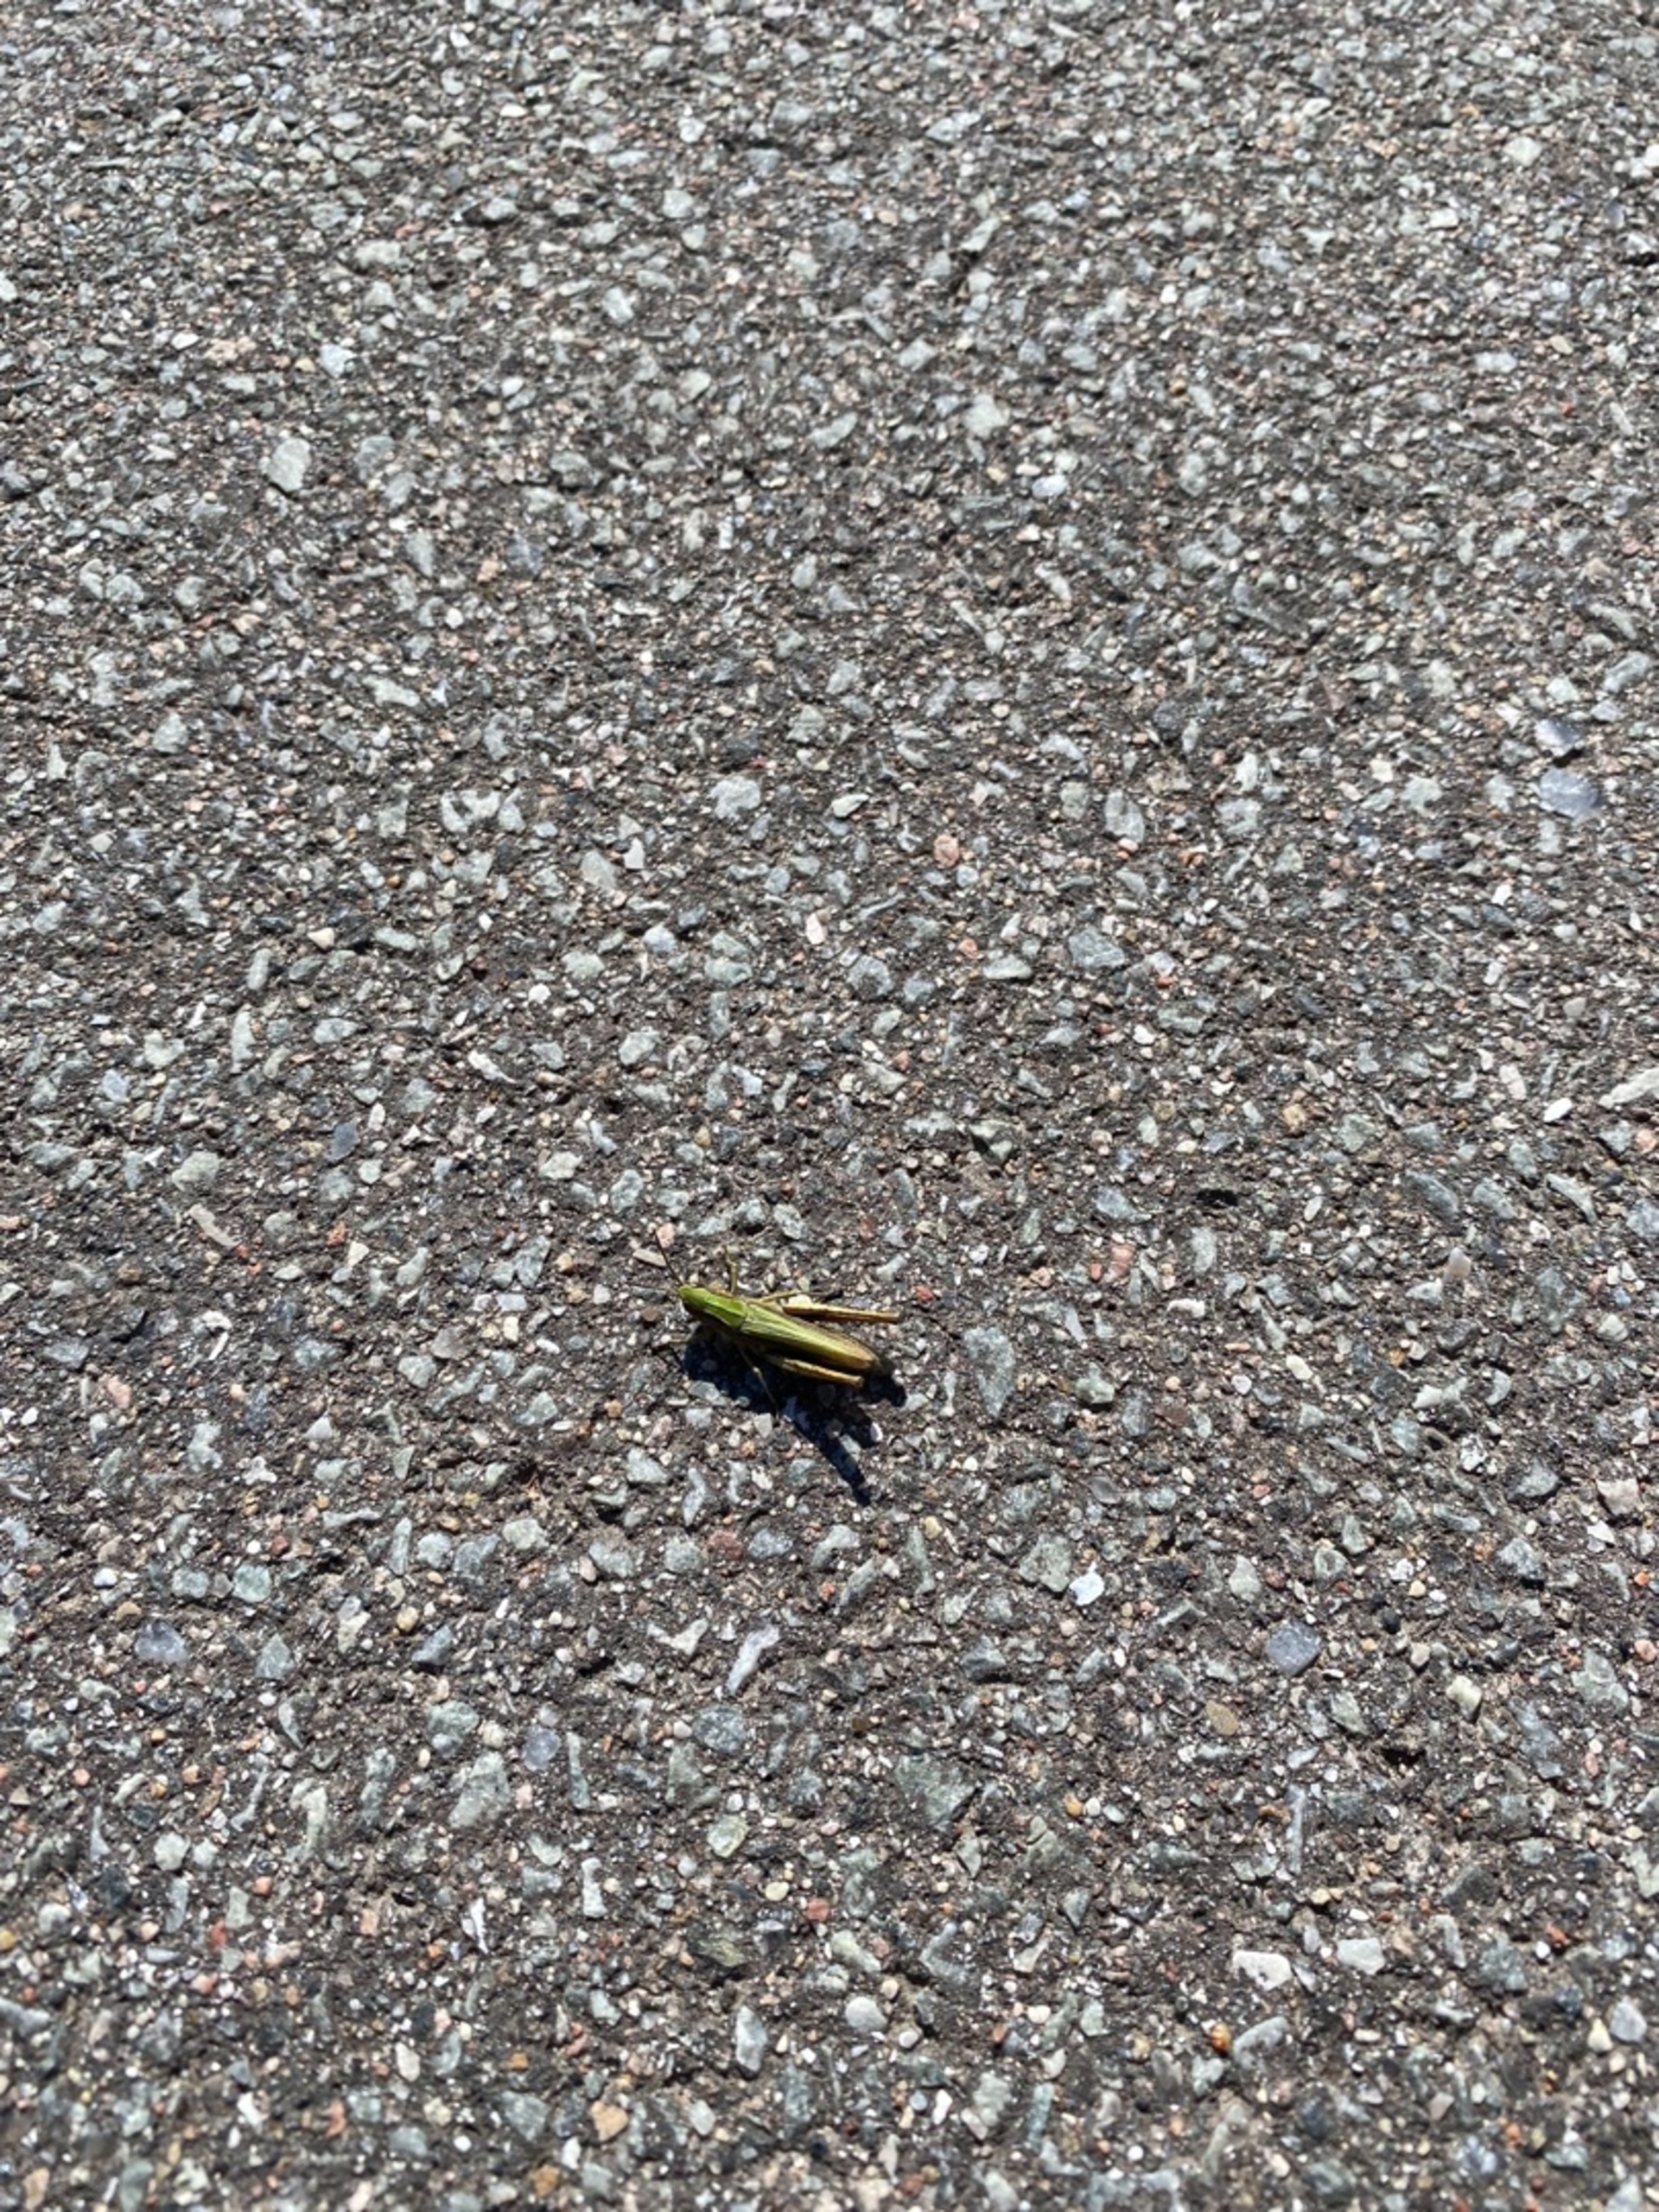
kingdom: Animalia
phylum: Arthropoda
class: Insecta
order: Orthoptera
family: Acrididae
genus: Chorthippus
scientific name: Chorthippus dorsatus
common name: Stor enggræshoppe
